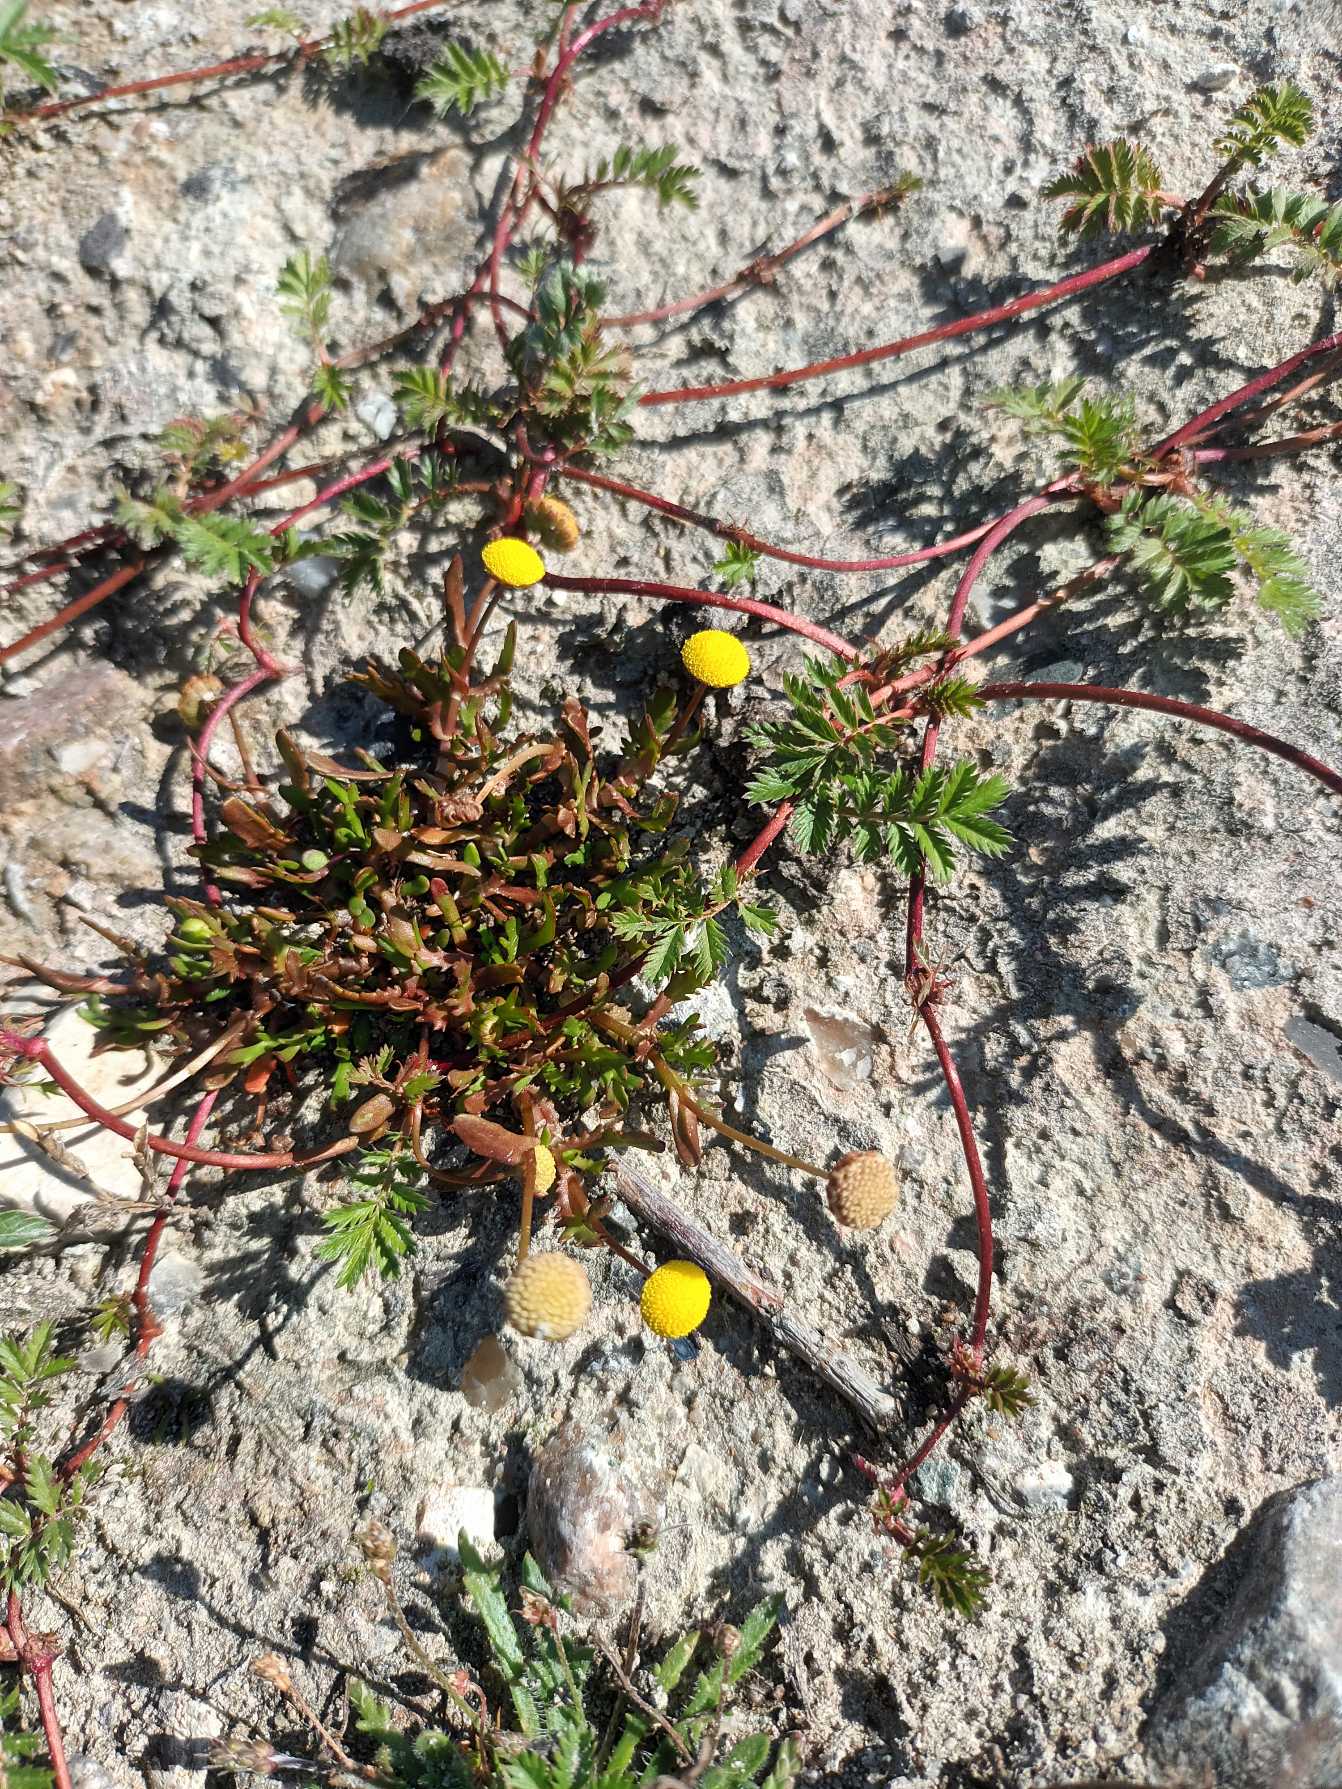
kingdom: Plantae
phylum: Tracheophyta
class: Magnoliopsida
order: Asterales
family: Asteraceae
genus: Cotula
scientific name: Cotula coronopifolia
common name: Firkløft
